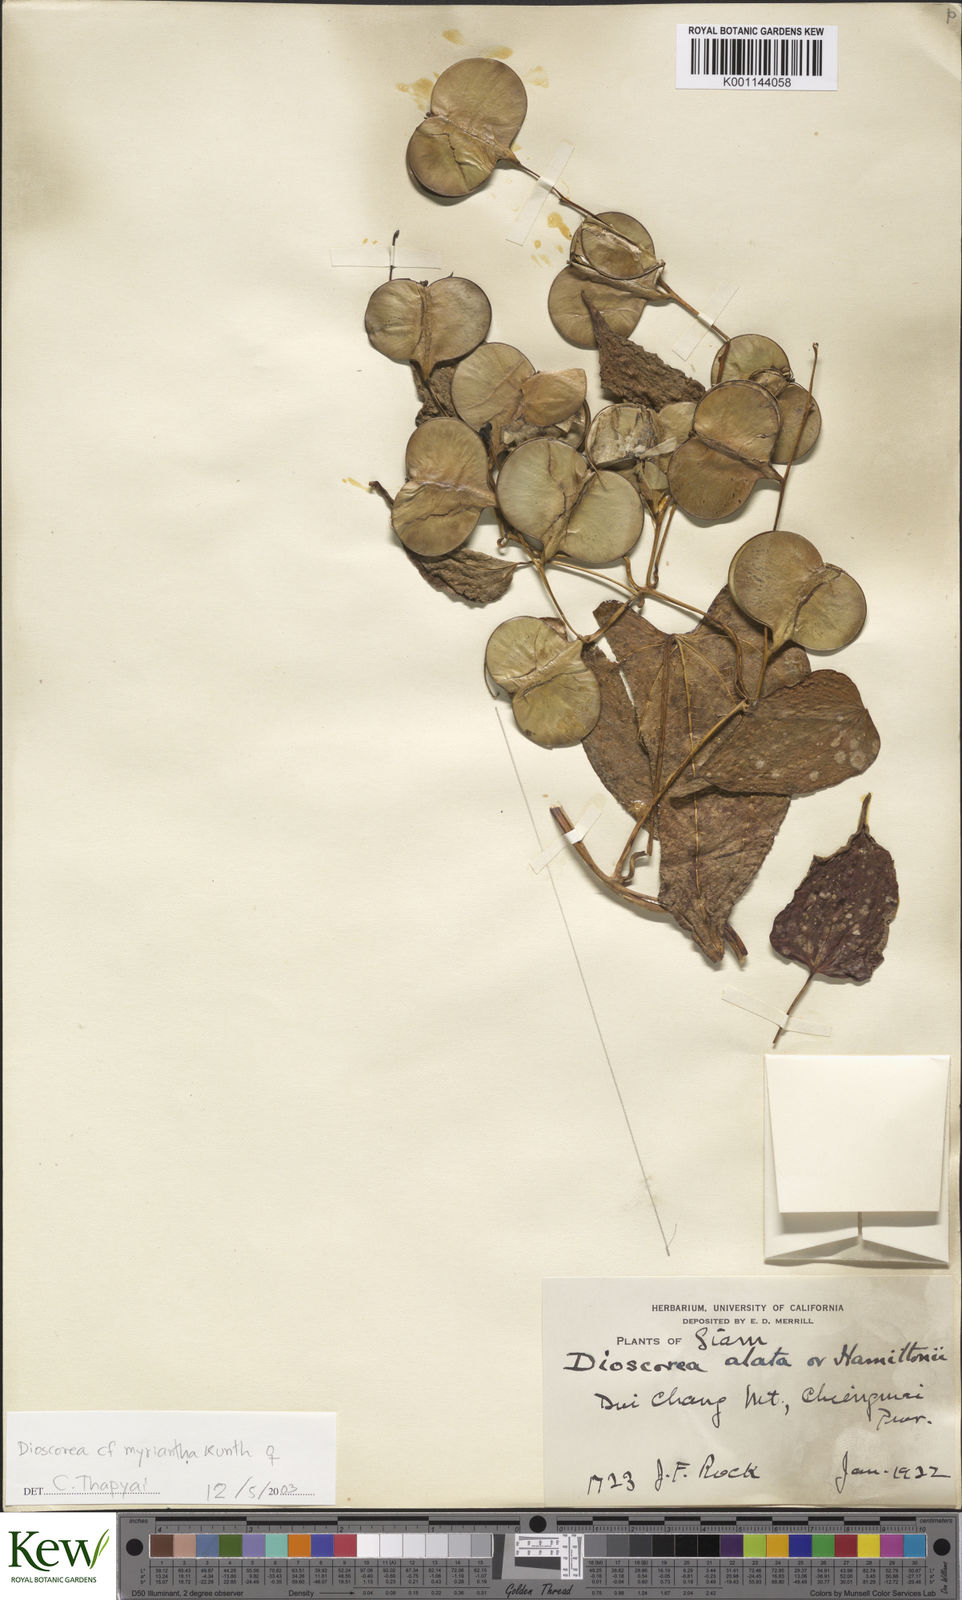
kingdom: Plantae
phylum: Tracheophyta
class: Liliopsida
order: Dioscoreales
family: Dioscoreaceae
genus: Dioscorea
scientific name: Dioscorea alata
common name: Water yam
